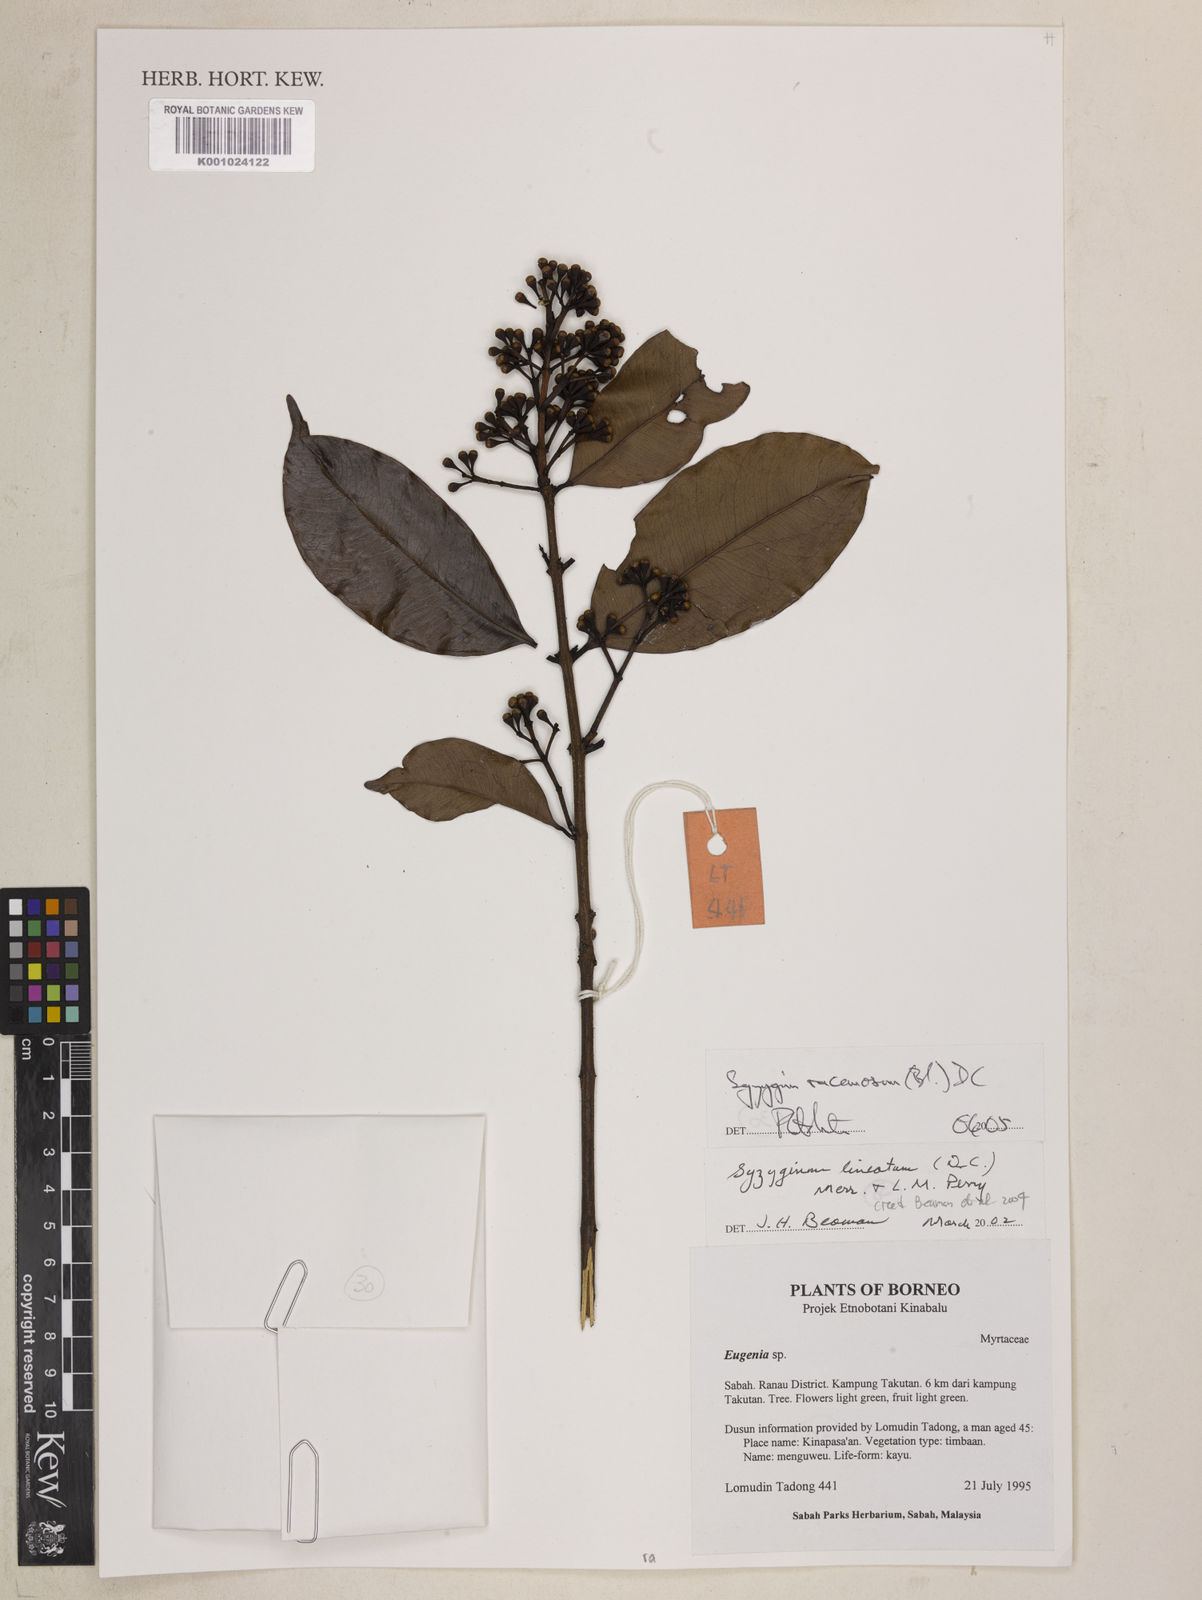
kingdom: Plantae
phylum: Tracheophyta
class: Magnoliopsida
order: Myrtales
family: Myrtaceae
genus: Syzygium
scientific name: Syzygium racemosum
